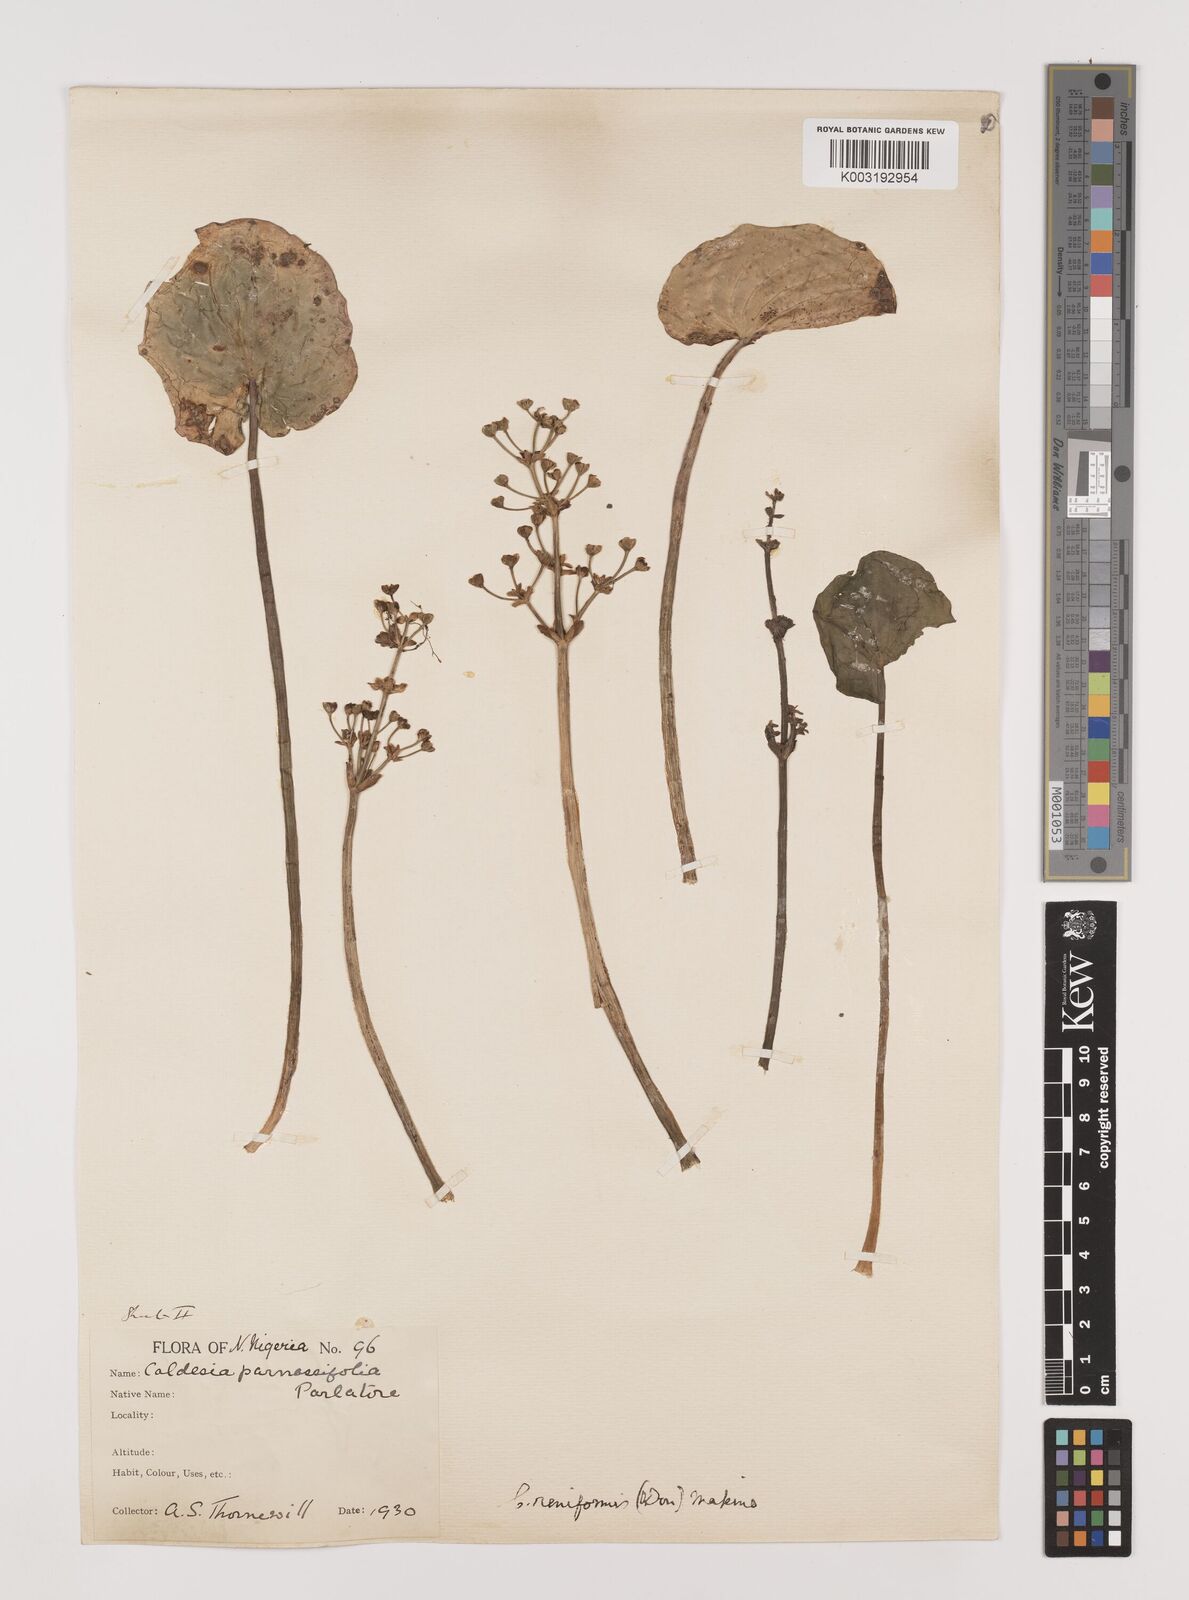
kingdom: Plantae
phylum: Tracheophyta
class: Liliopsida
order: Alismatales
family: Alismataceae
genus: Caldesia
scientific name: Caldesia parnassifolia
